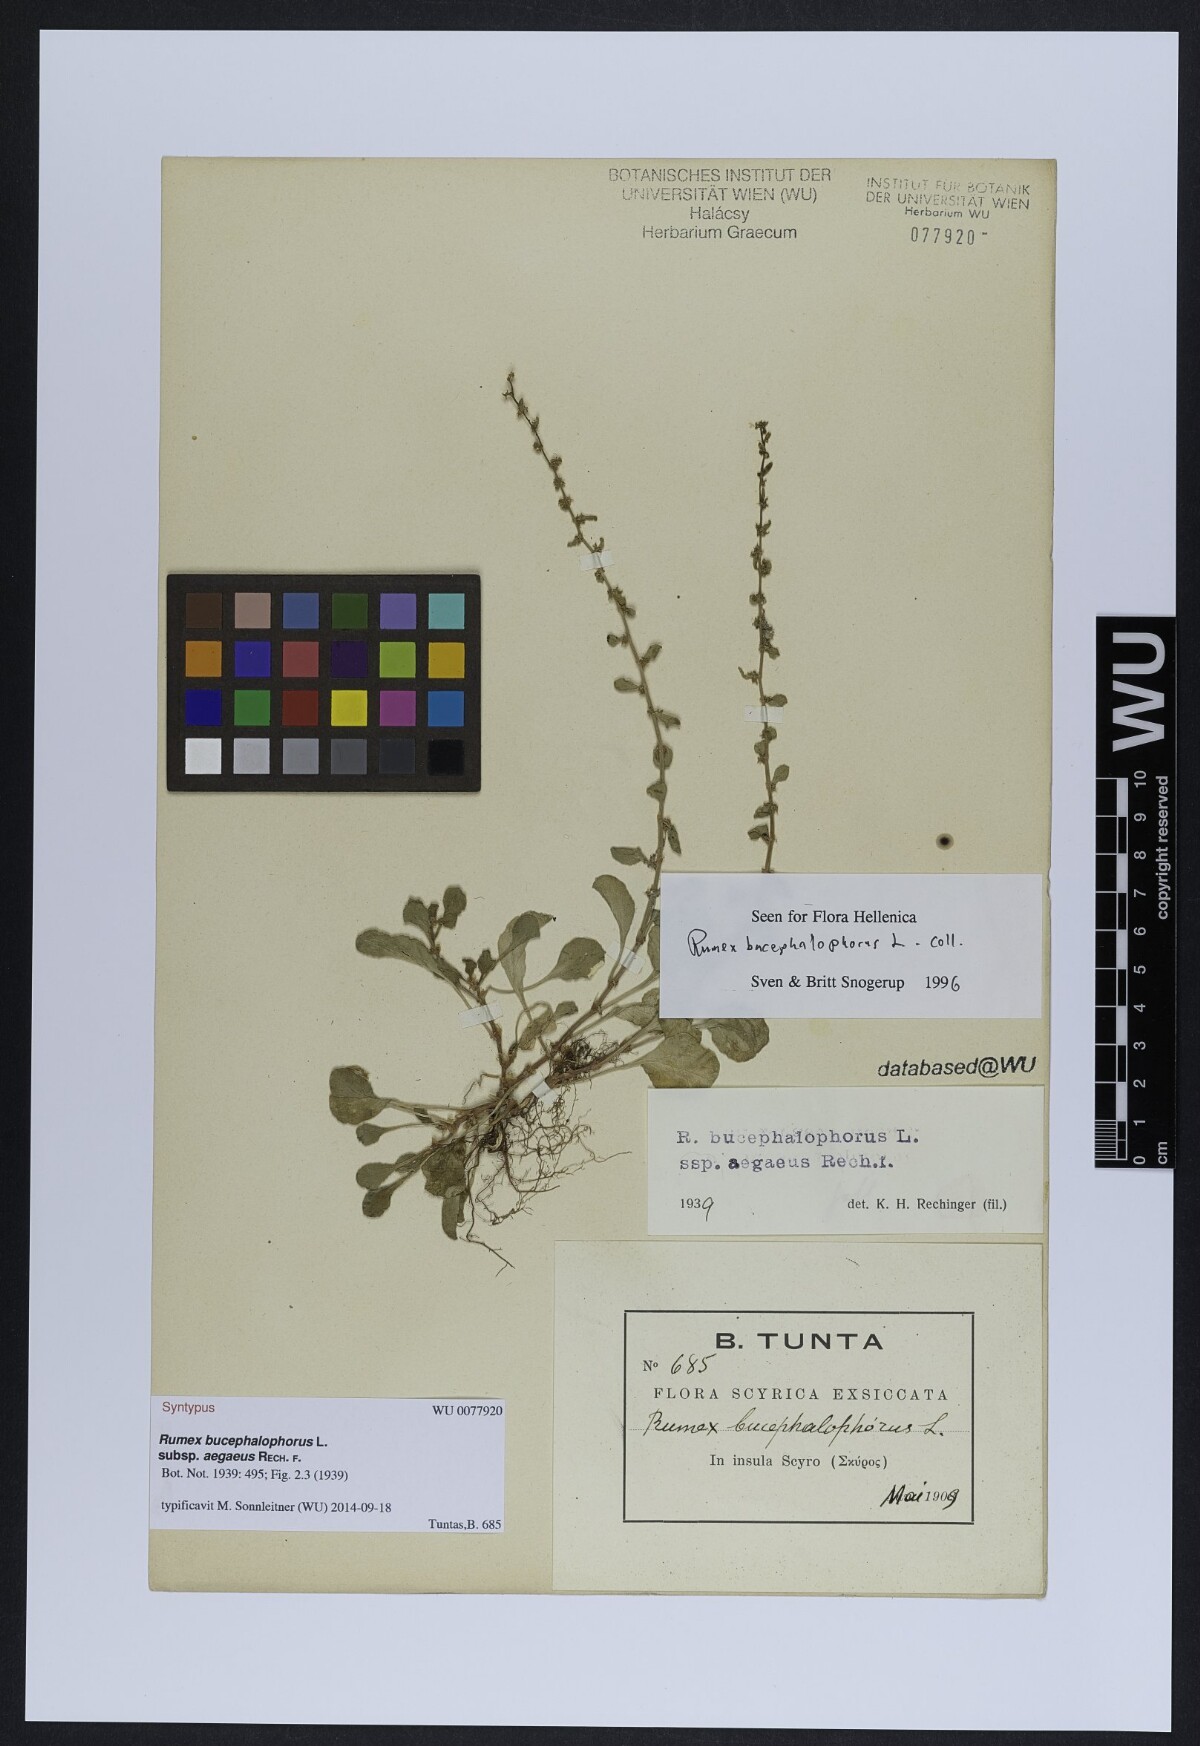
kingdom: Plantae
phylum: Tracheophyta
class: Magnoliopsida
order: Caryophyllales
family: Polygonaceae
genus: Rumex
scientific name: Rumex bucephalophorus
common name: Red dock
